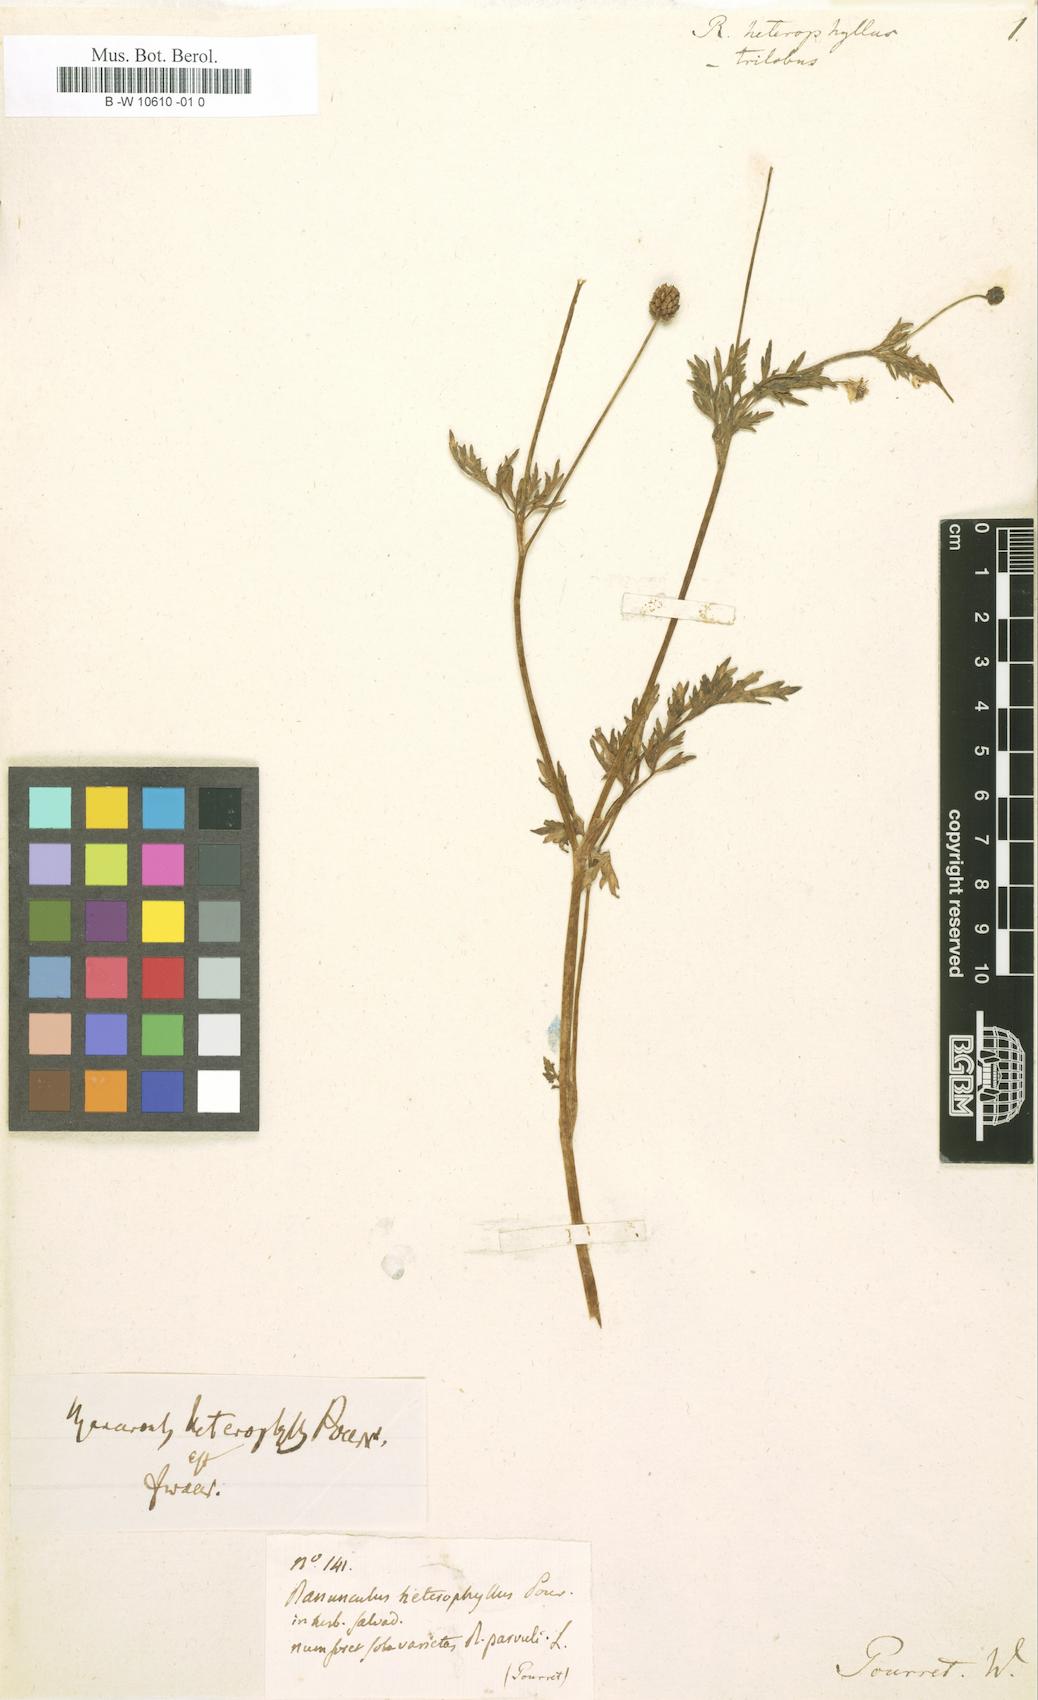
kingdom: Plantae
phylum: Tracheophyta
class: Magnoliopsida
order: Ranunculales
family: Ranunculaceae
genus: Ranunculus
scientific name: Ranunculus
